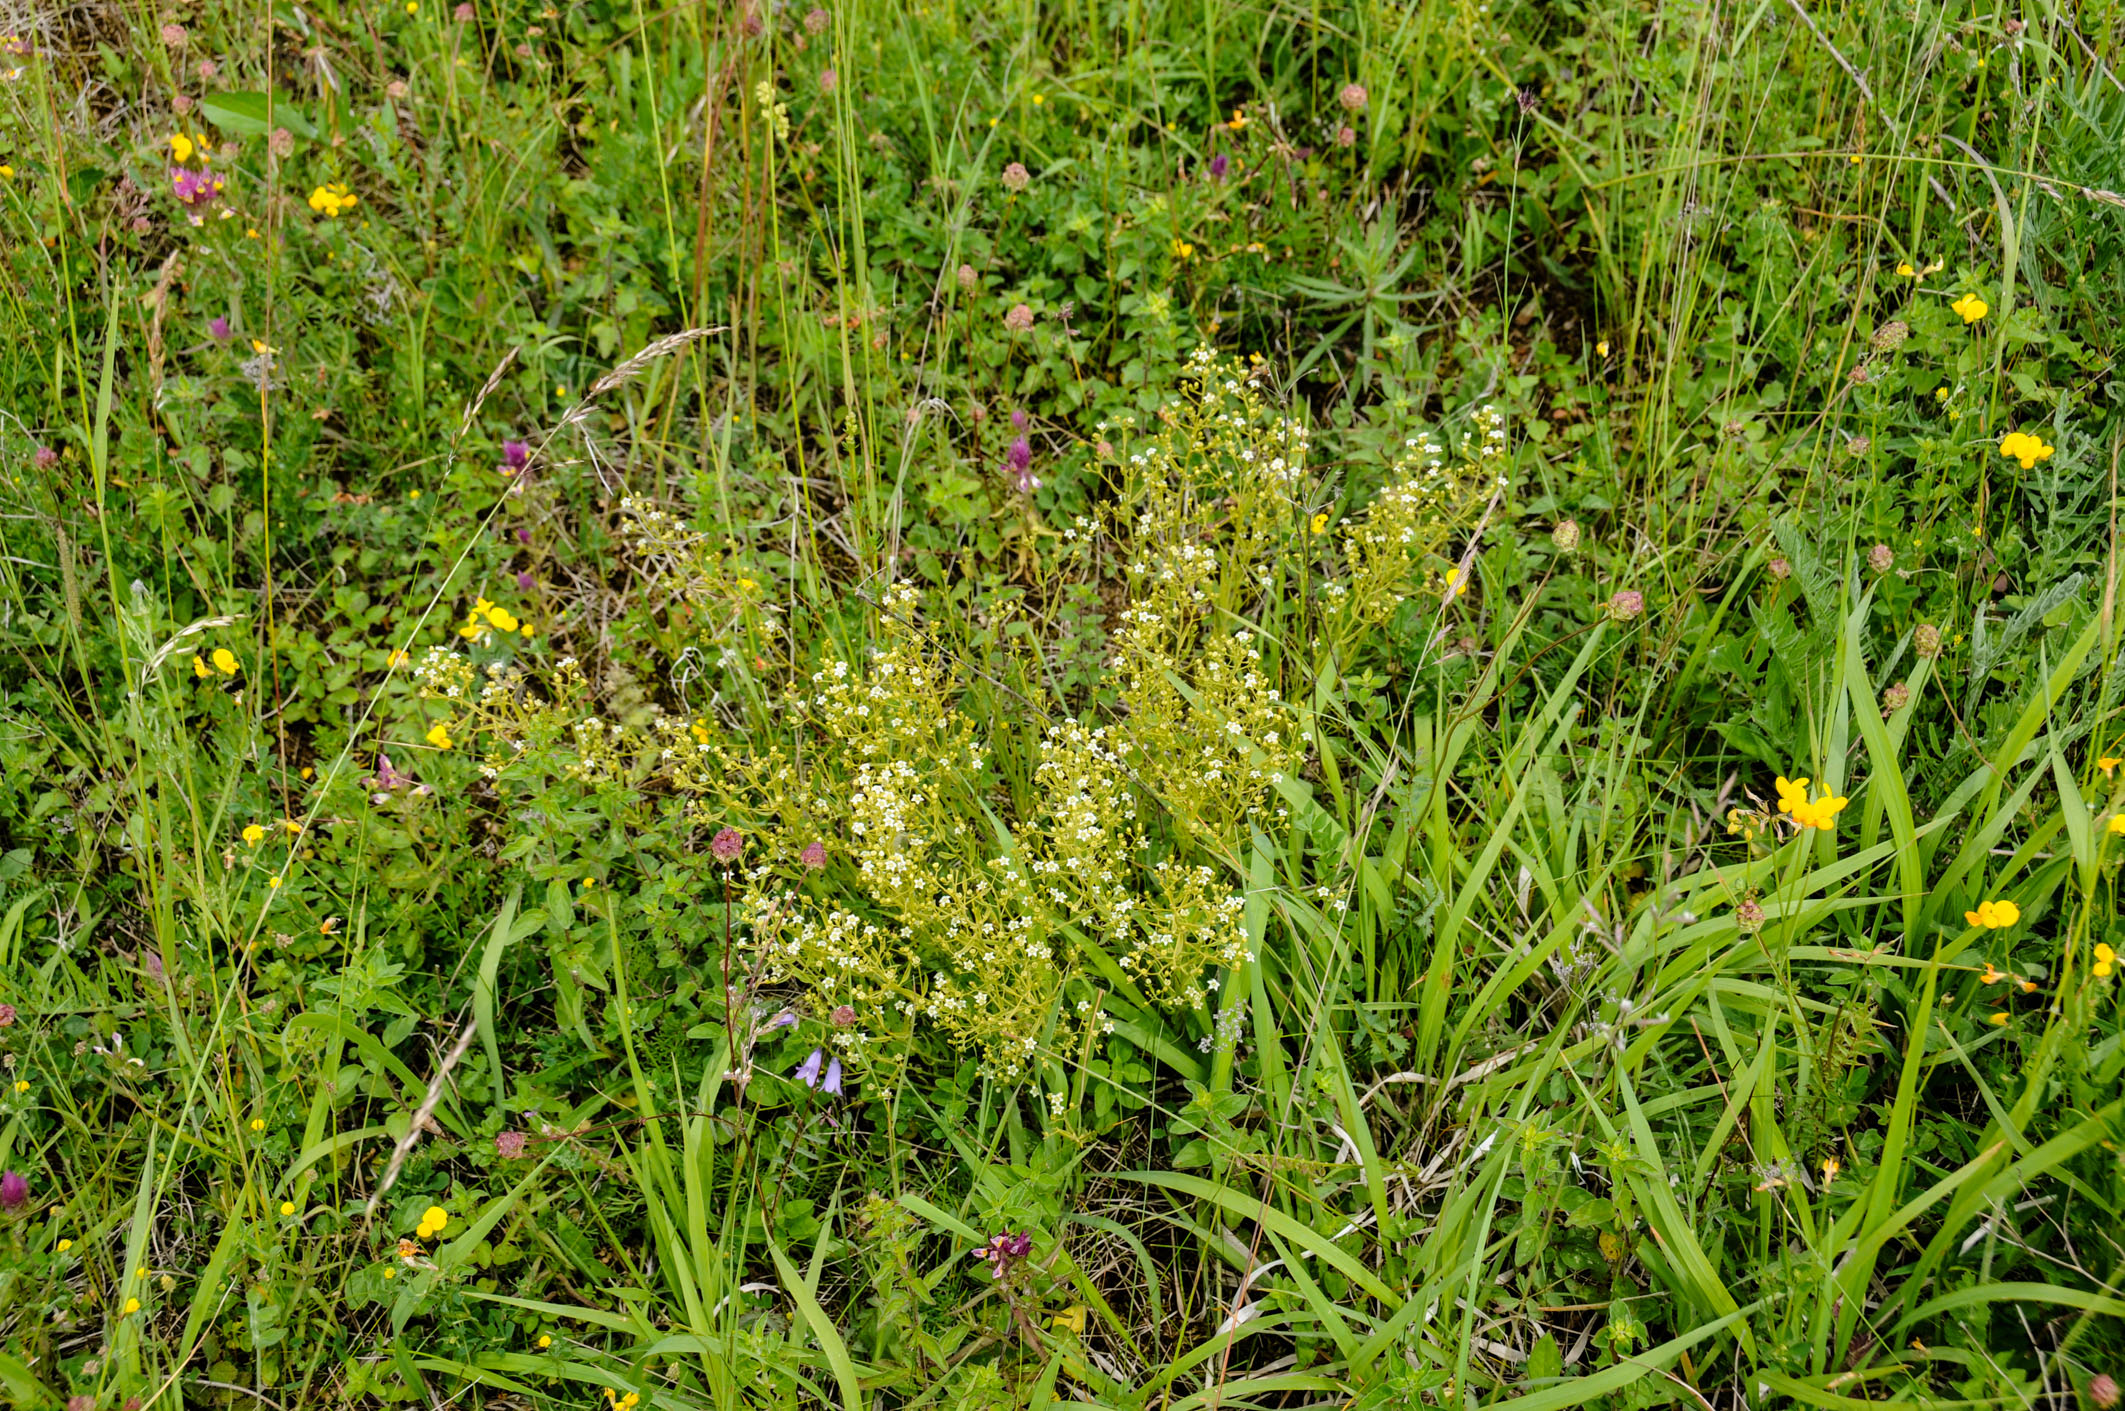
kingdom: Plantae
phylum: Tracheophyta
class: Magnoliopsida
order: Santalales
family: Thesiaceae
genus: Thesium
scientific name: Thesium linophyllon
